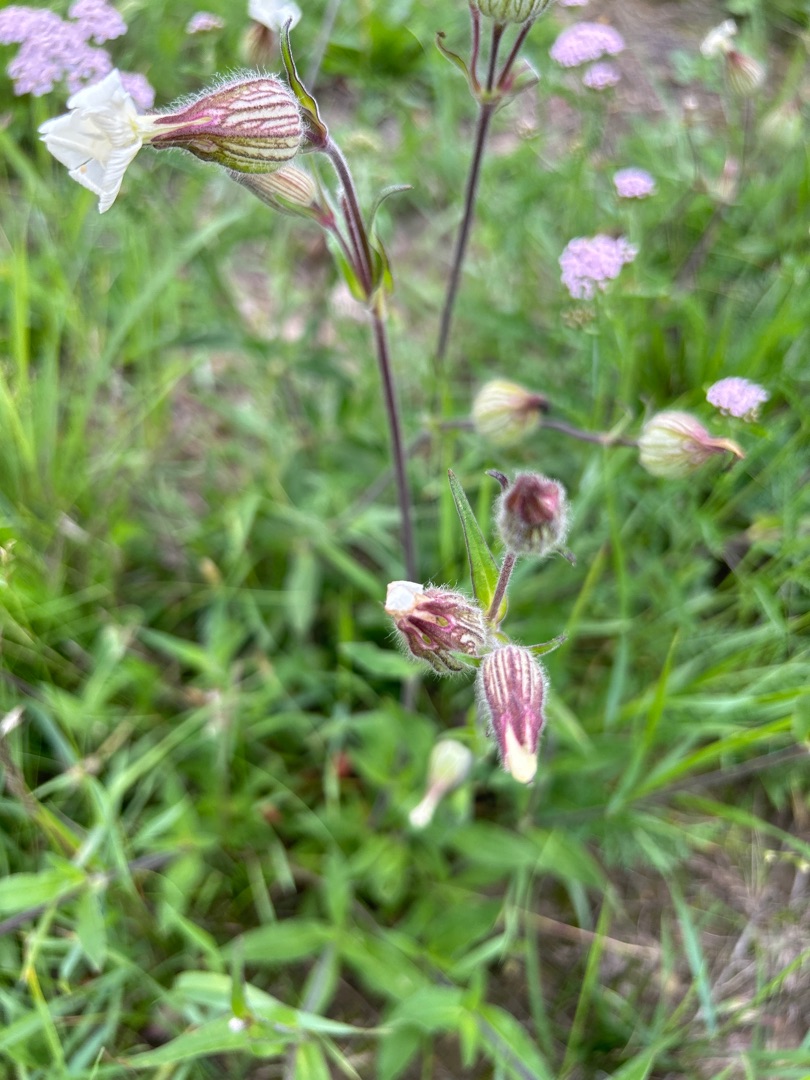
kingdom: Plantae
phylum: Tracheophyta
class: Magnoliopsida
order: Caryophyllales
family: Caryophyllaceae
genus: Silene
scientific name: Silene latifolia
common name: Aftenpragtstjerne
